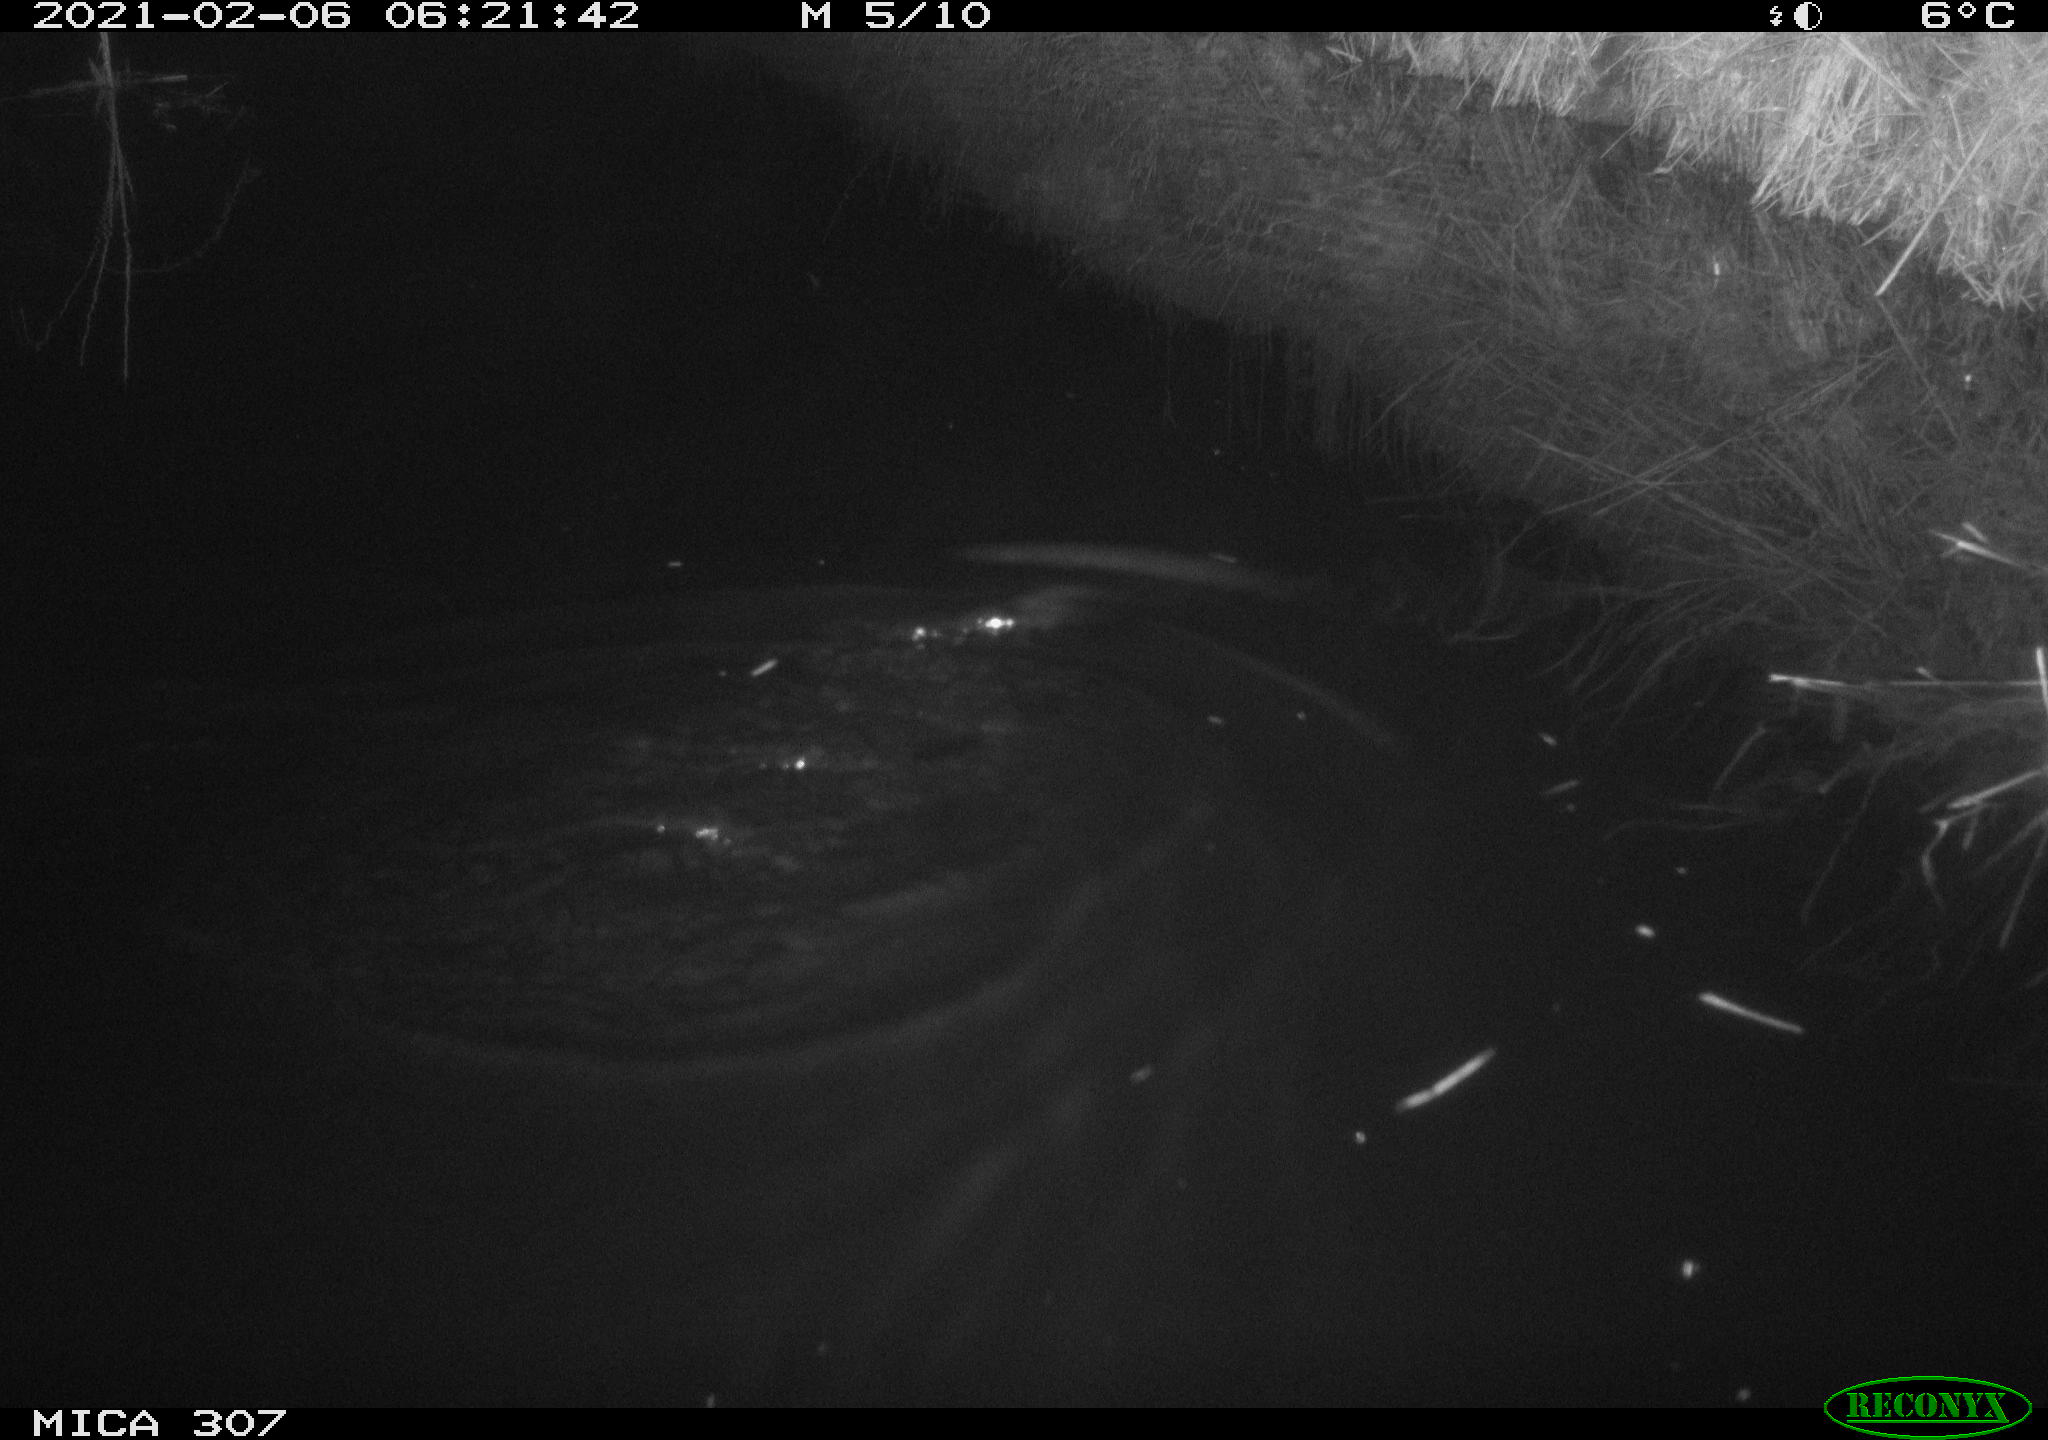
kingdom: Animalia
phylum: Chordata
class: Mammalia
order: Rodentia
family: Cricetidae
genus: Ondatra
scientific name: Ondatra zibethicus
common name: Muskrat
